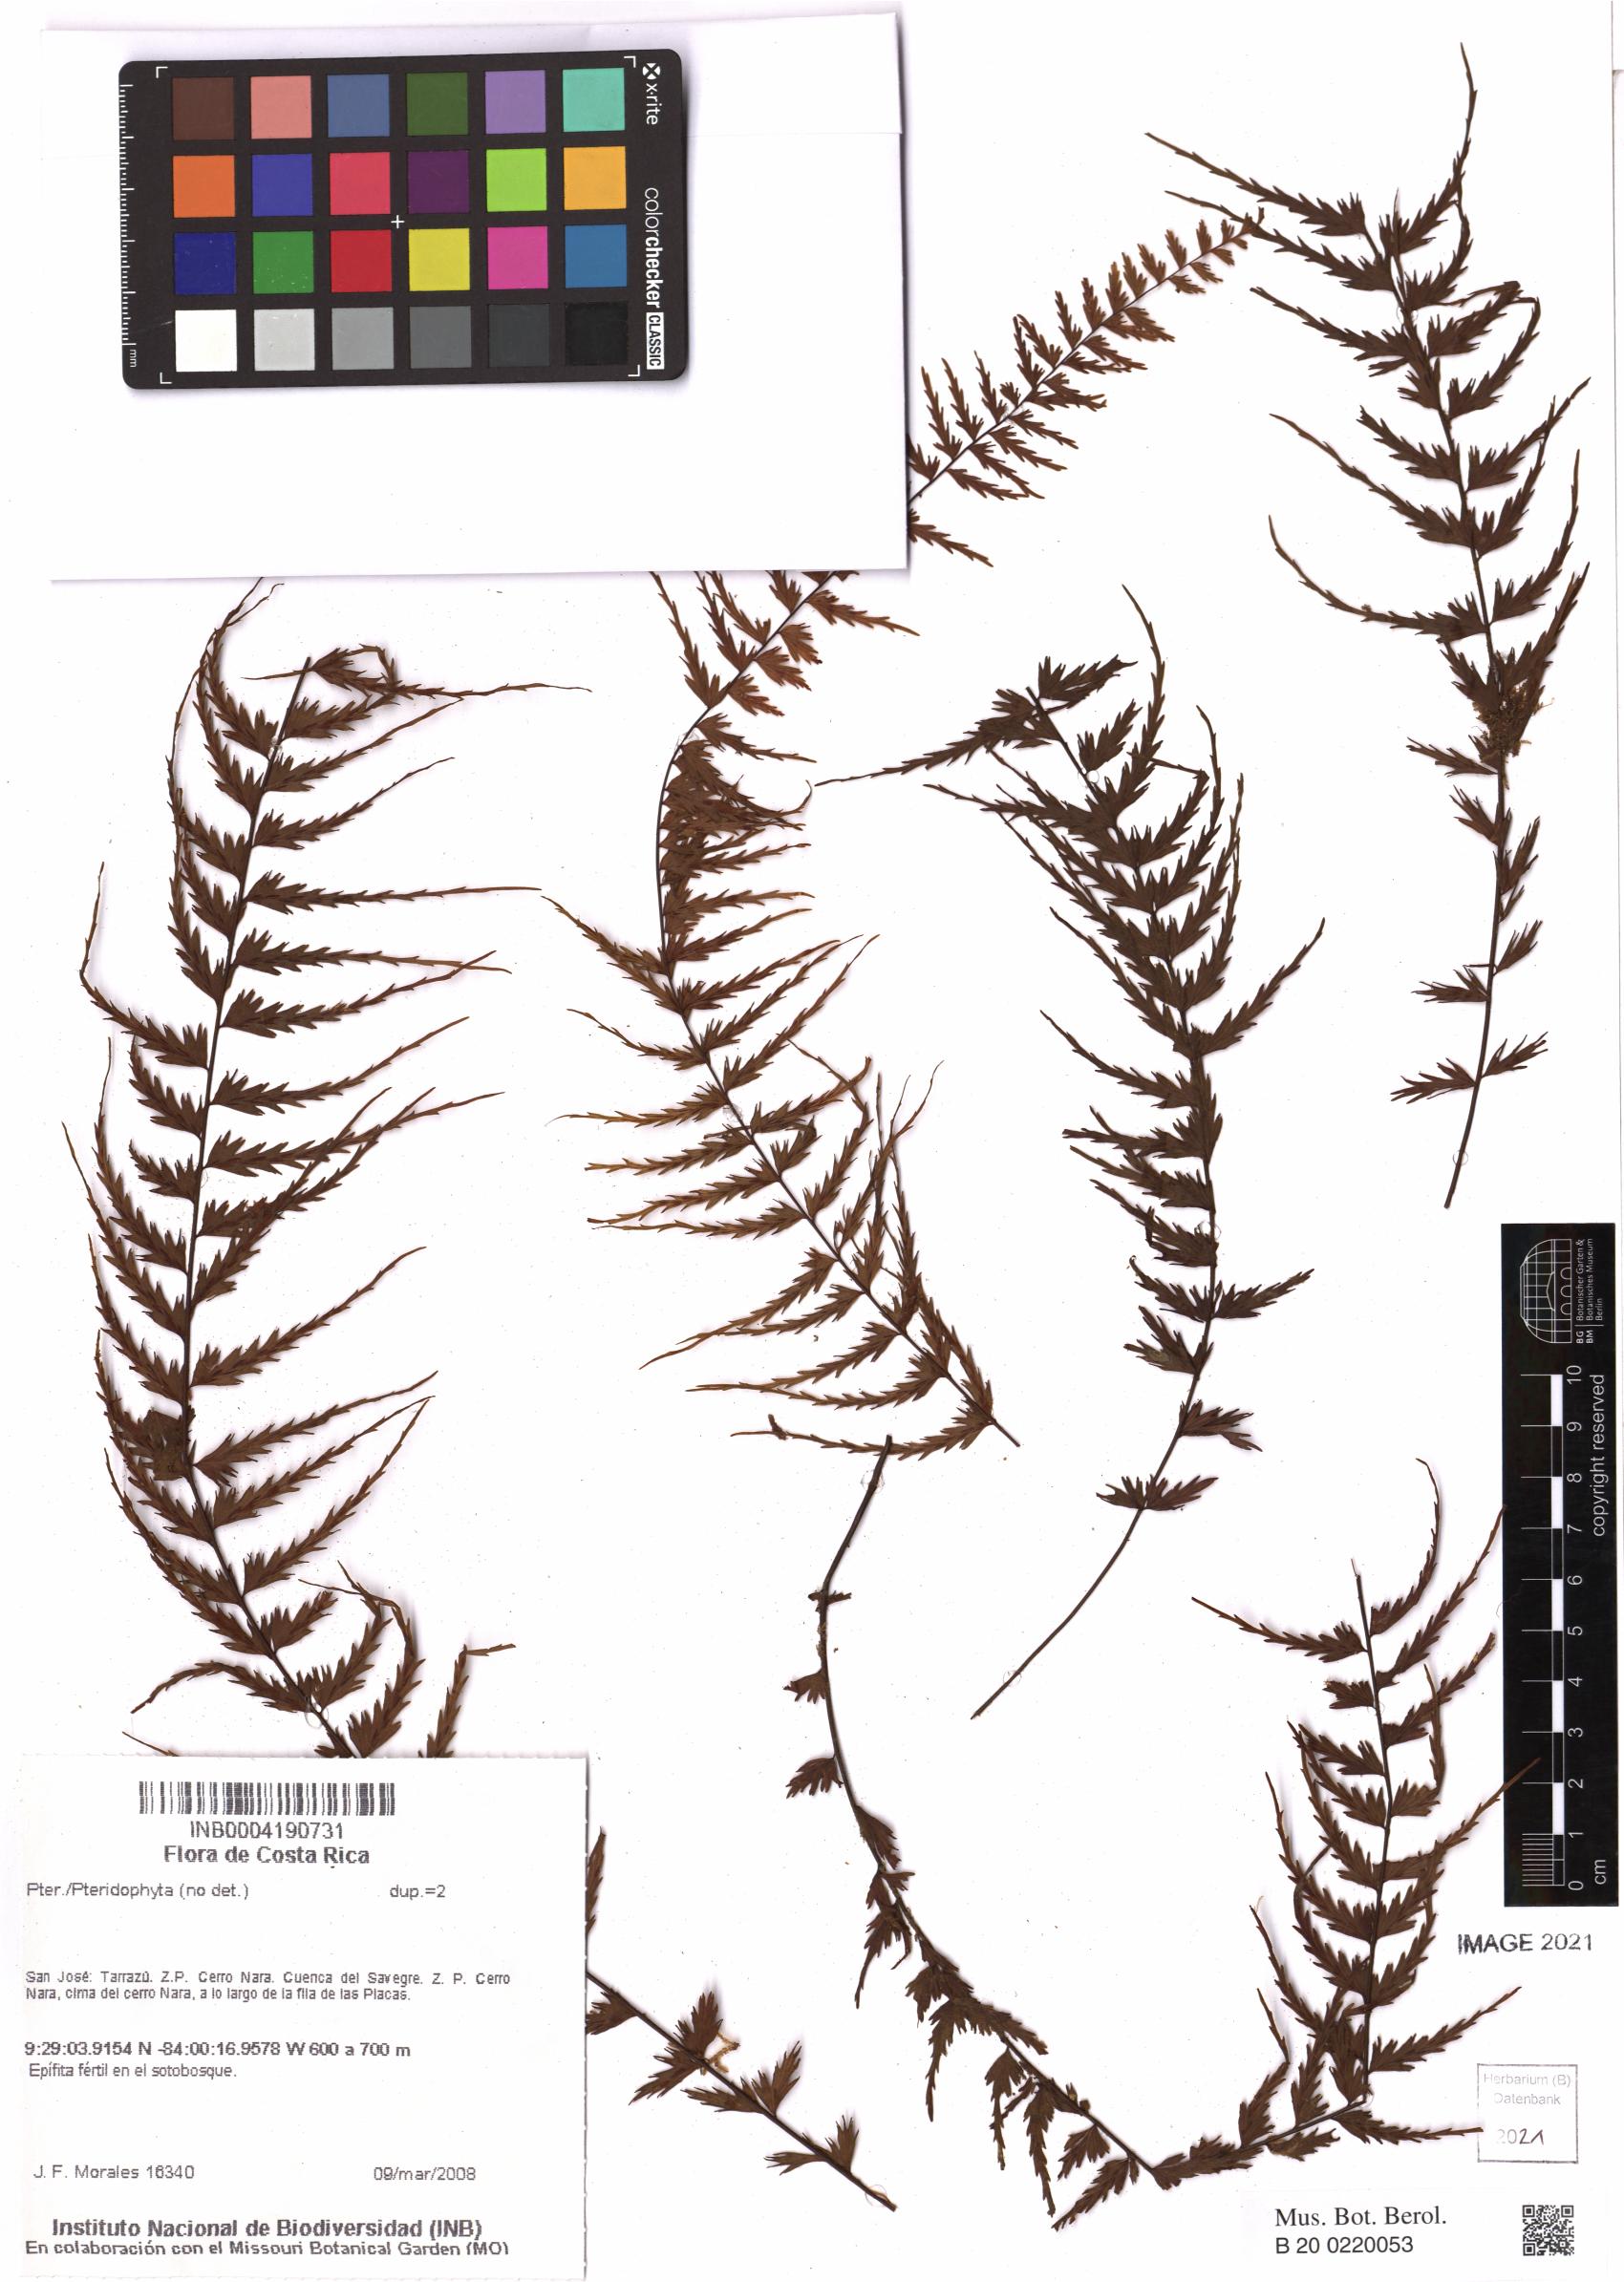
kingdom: Plantae
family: Pteridophyta
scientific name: Pteridophyta
